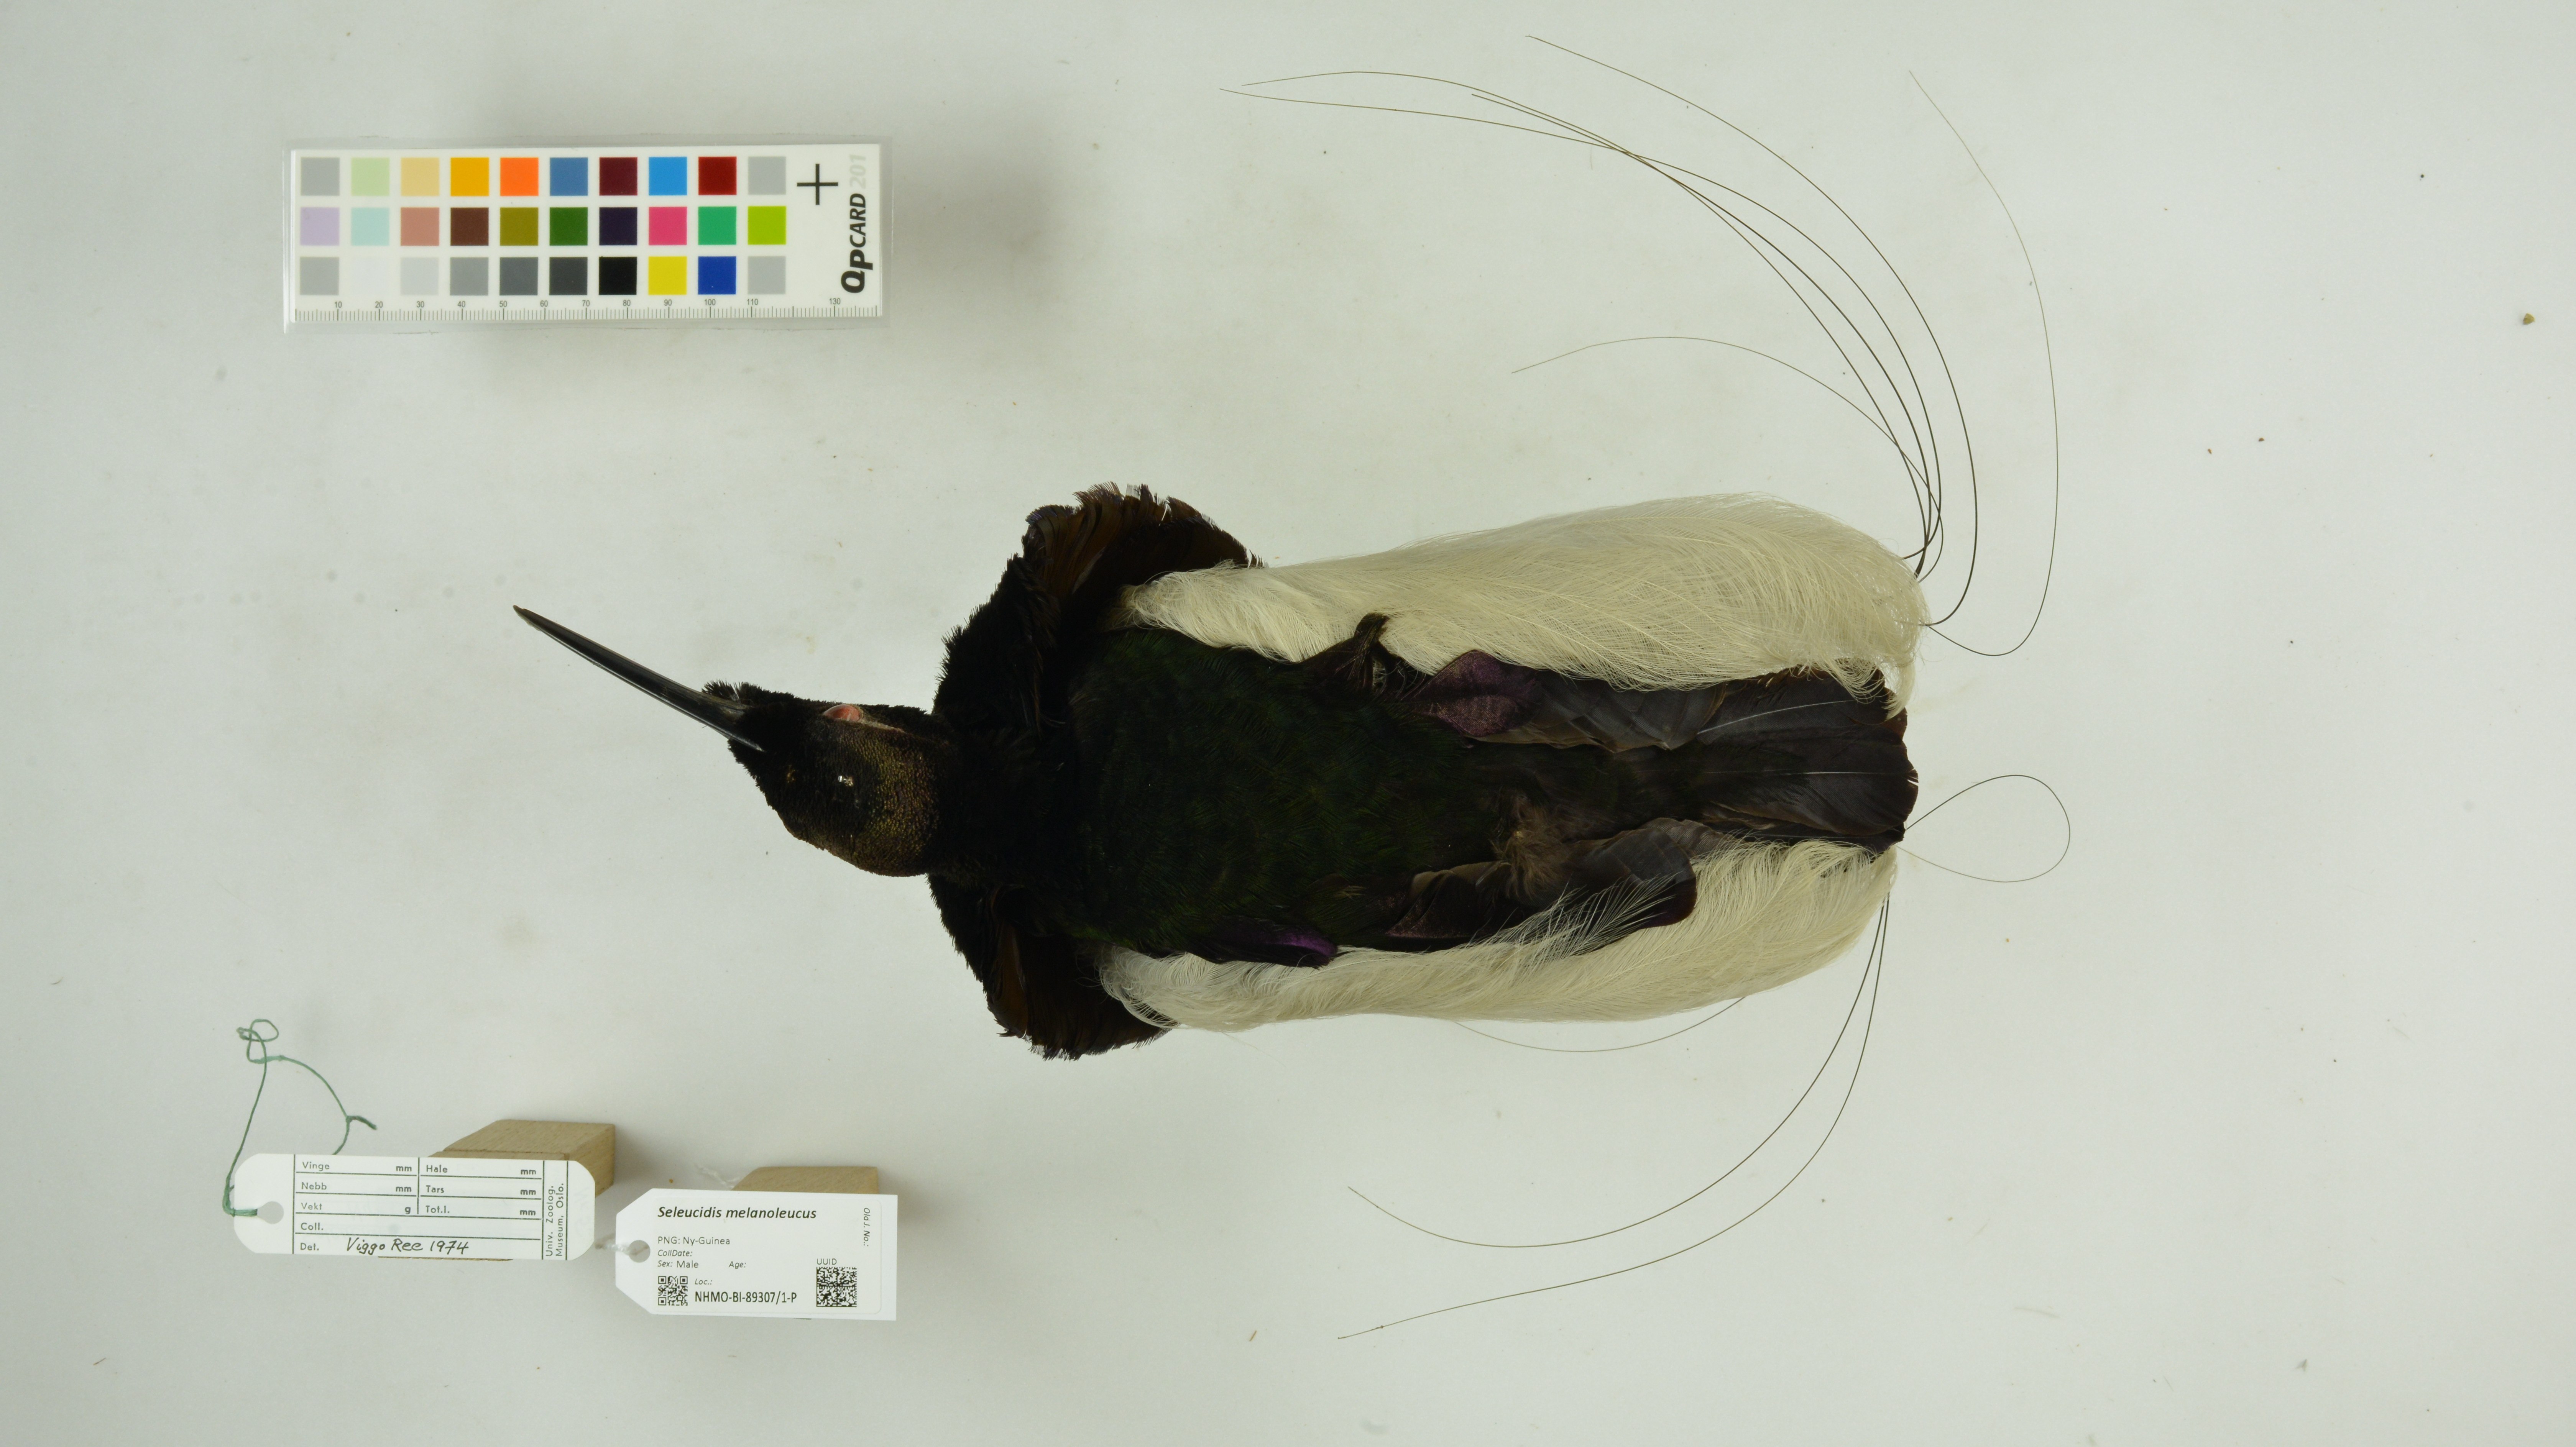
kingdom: Animalia
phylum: Chordata
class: Aves
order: Passeriformes
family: Paradisaeidae
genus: Seleucidis
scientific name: Seleucidis melanoleucus
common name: Twelve-wired bird-of-paradise
